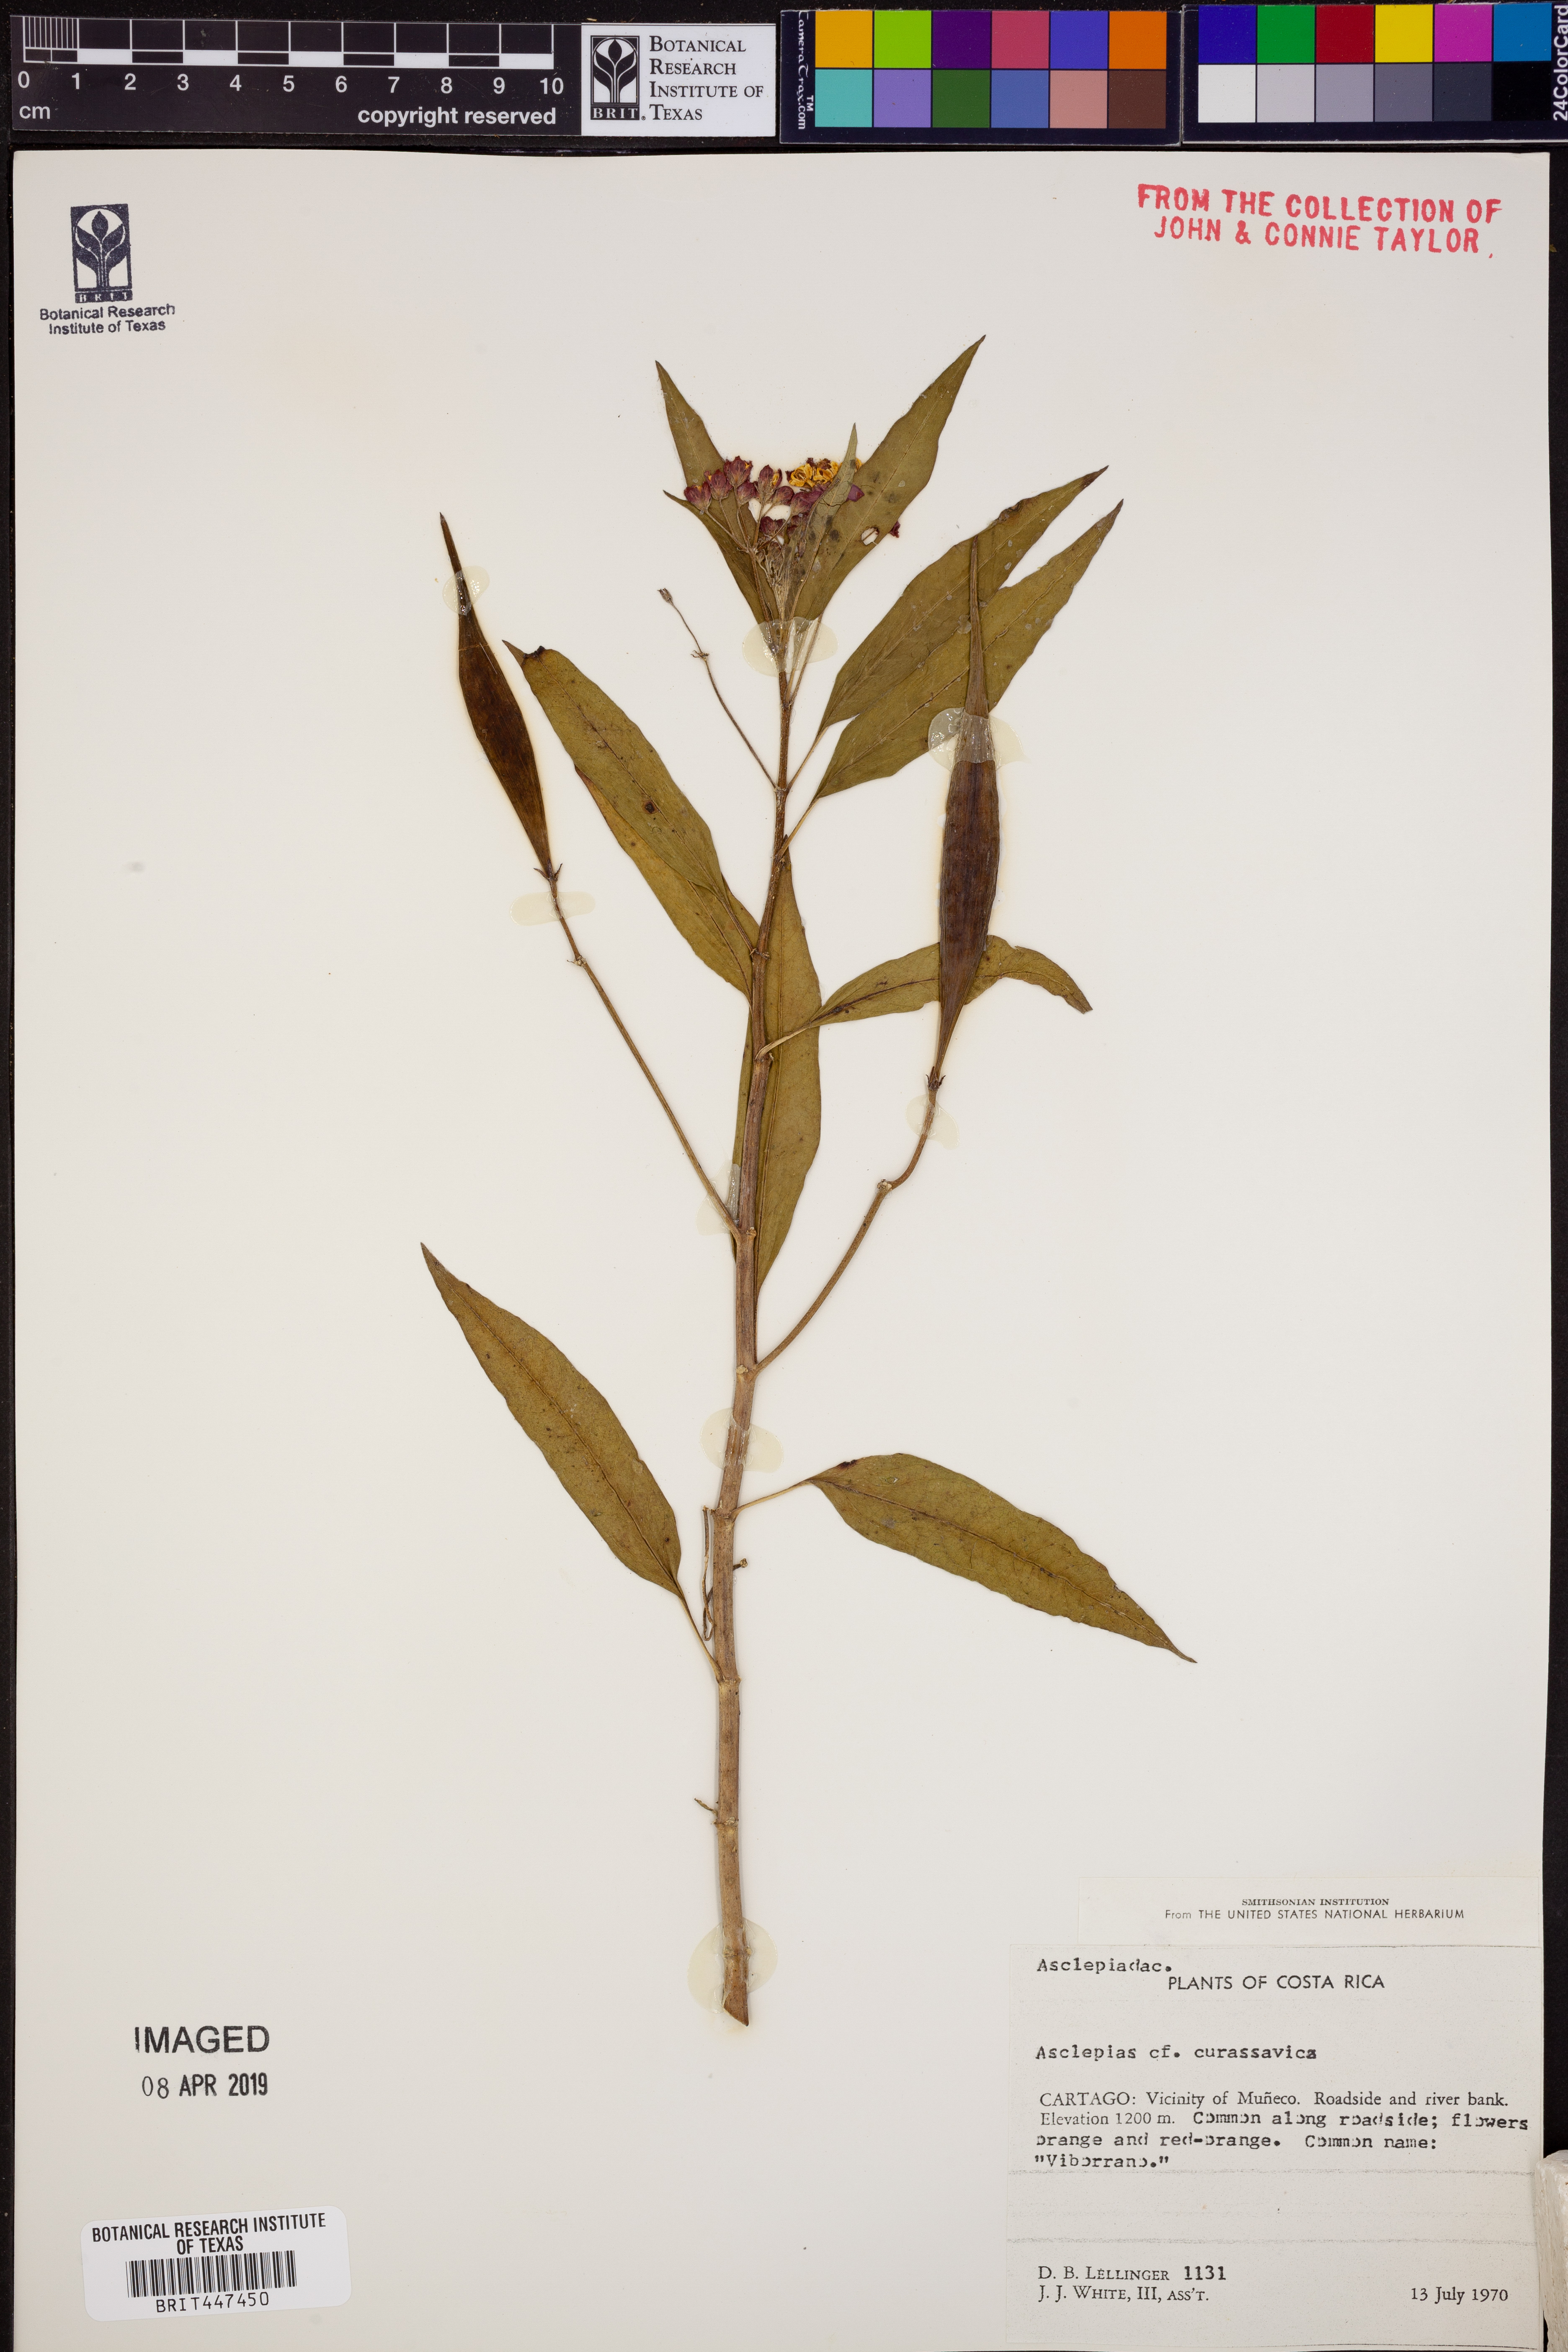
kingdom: Plantae
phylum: Tracheophyta
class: Magnoliopsida
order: Gentianales
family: Apocynaceae
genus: Asclepias
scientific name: Asclepias curassavica
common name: Bloodflower
